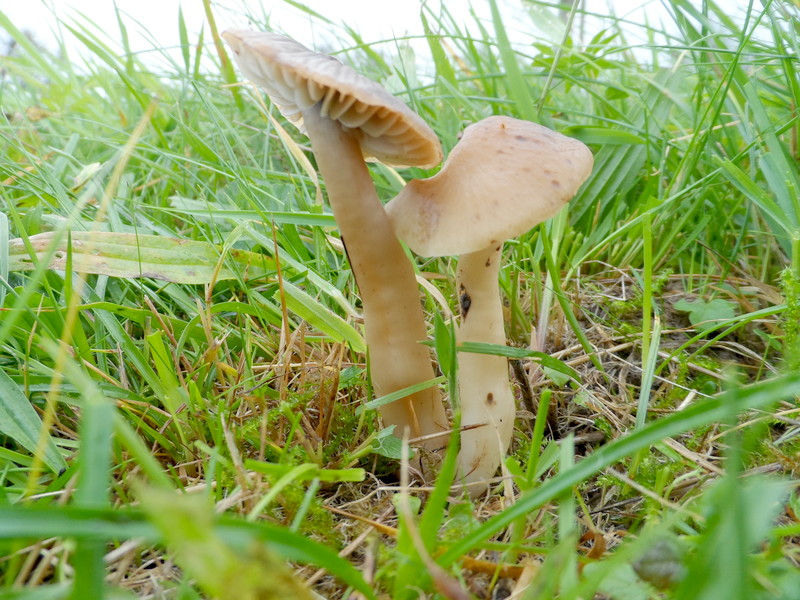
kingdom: Fungi
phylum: Basidiomycota
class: Agaricomycetes
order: Agaricales
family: Hygrophoraceae
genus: Cuphophyllus
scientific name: Cuphophyllus lacmus
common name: Grey waxcap
